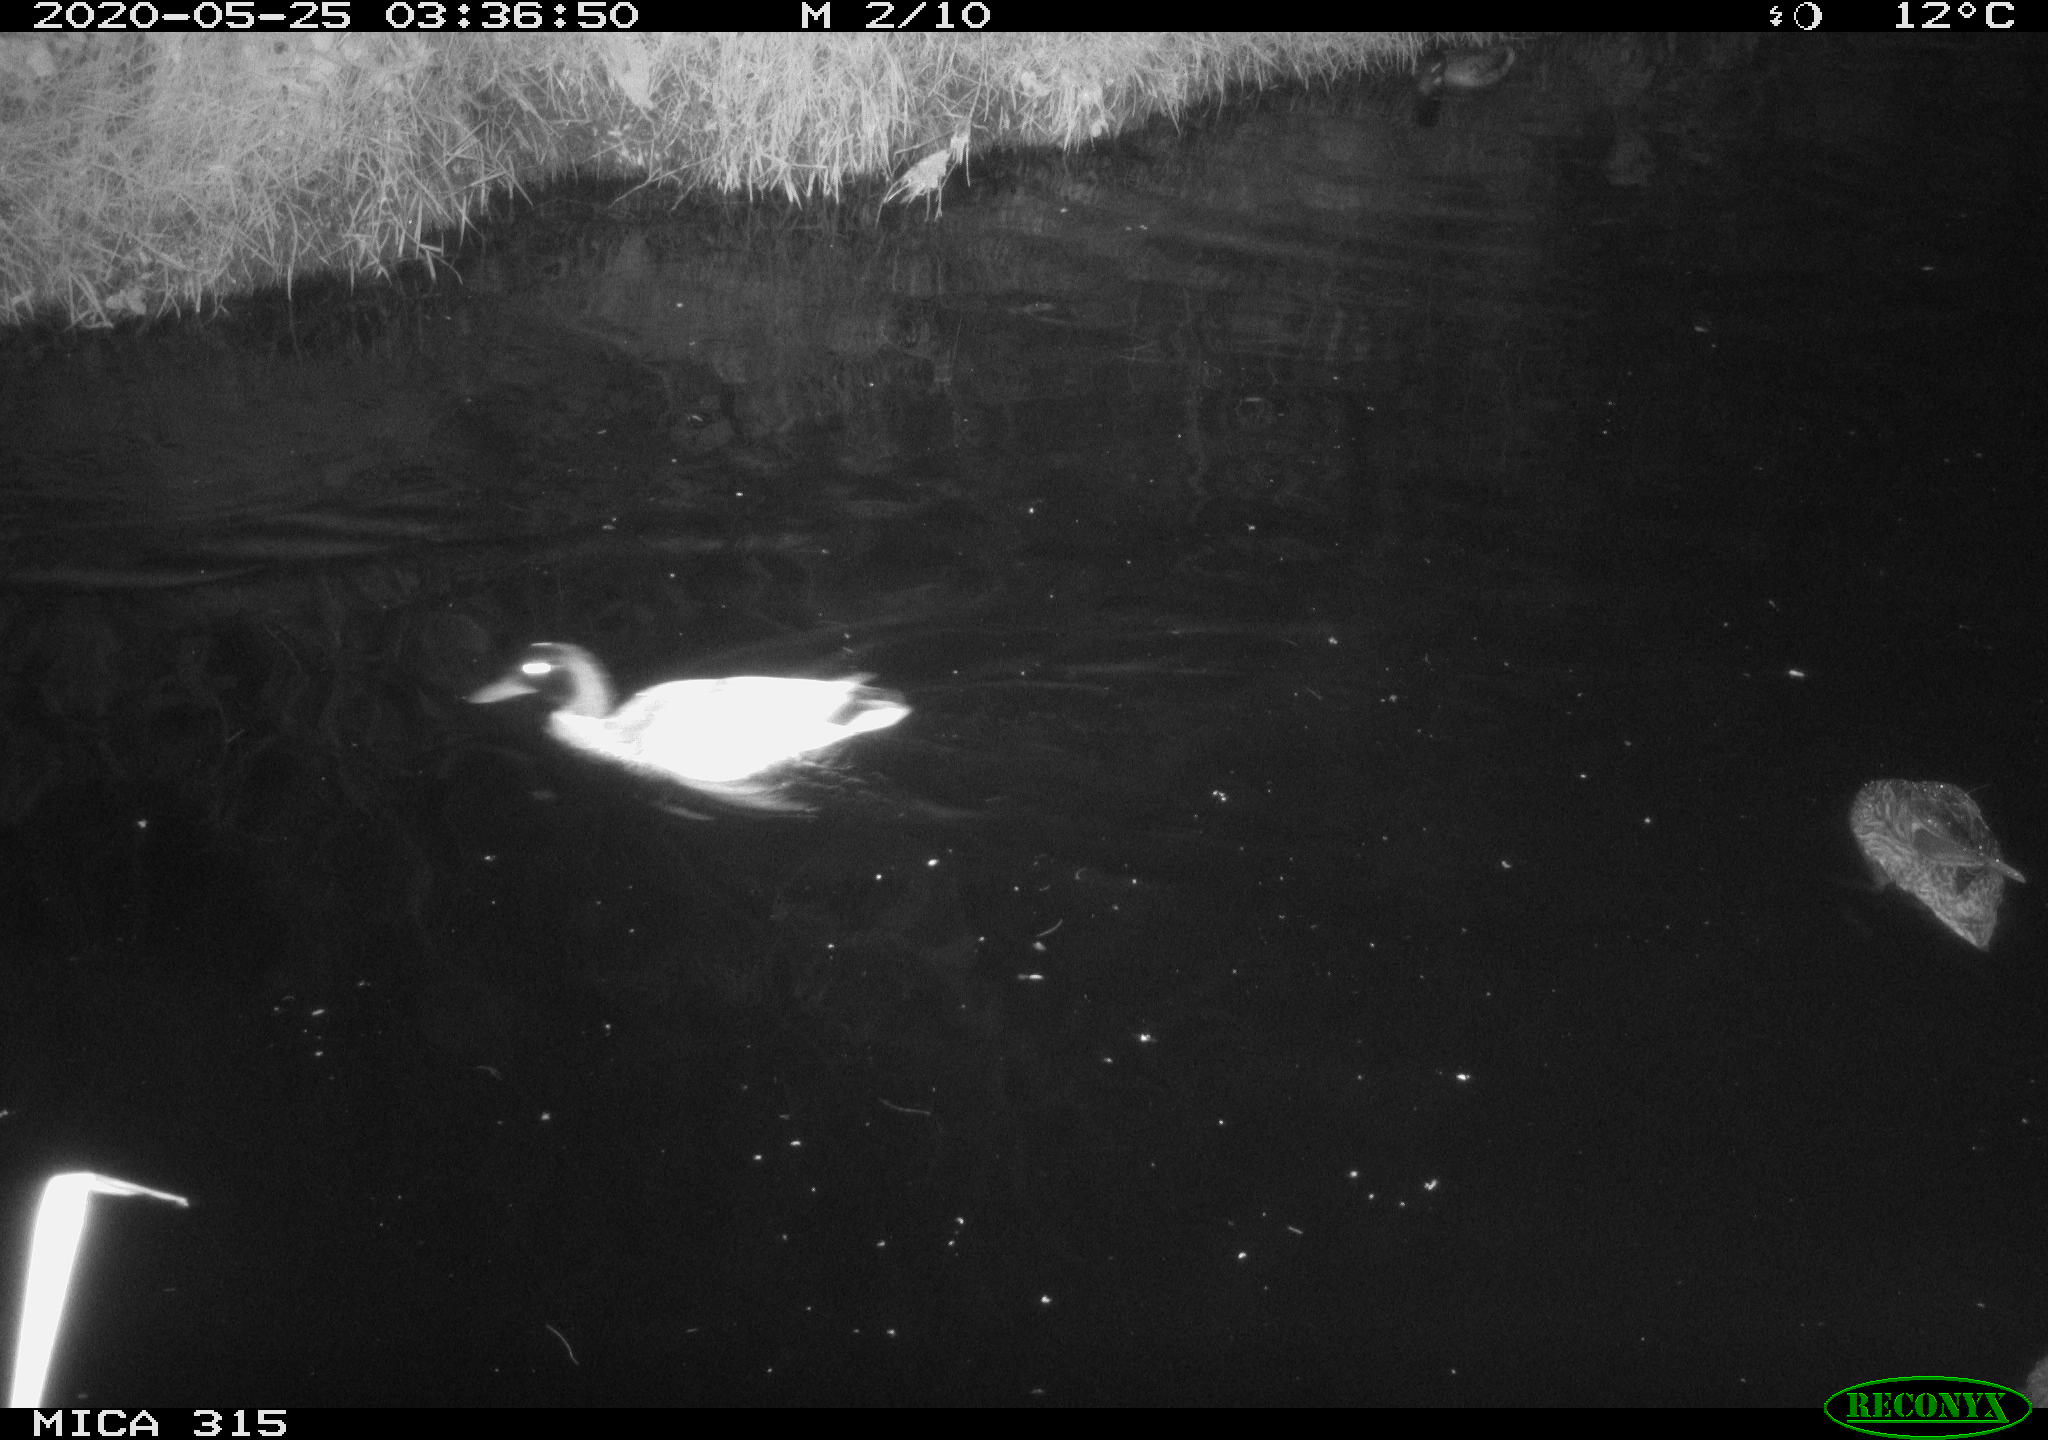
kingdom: Animalia
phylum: Chordata
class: Aves
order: Anseriformes
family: Anatidae
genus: Anas
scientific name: Anas platyrhynchos
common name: Mallard
